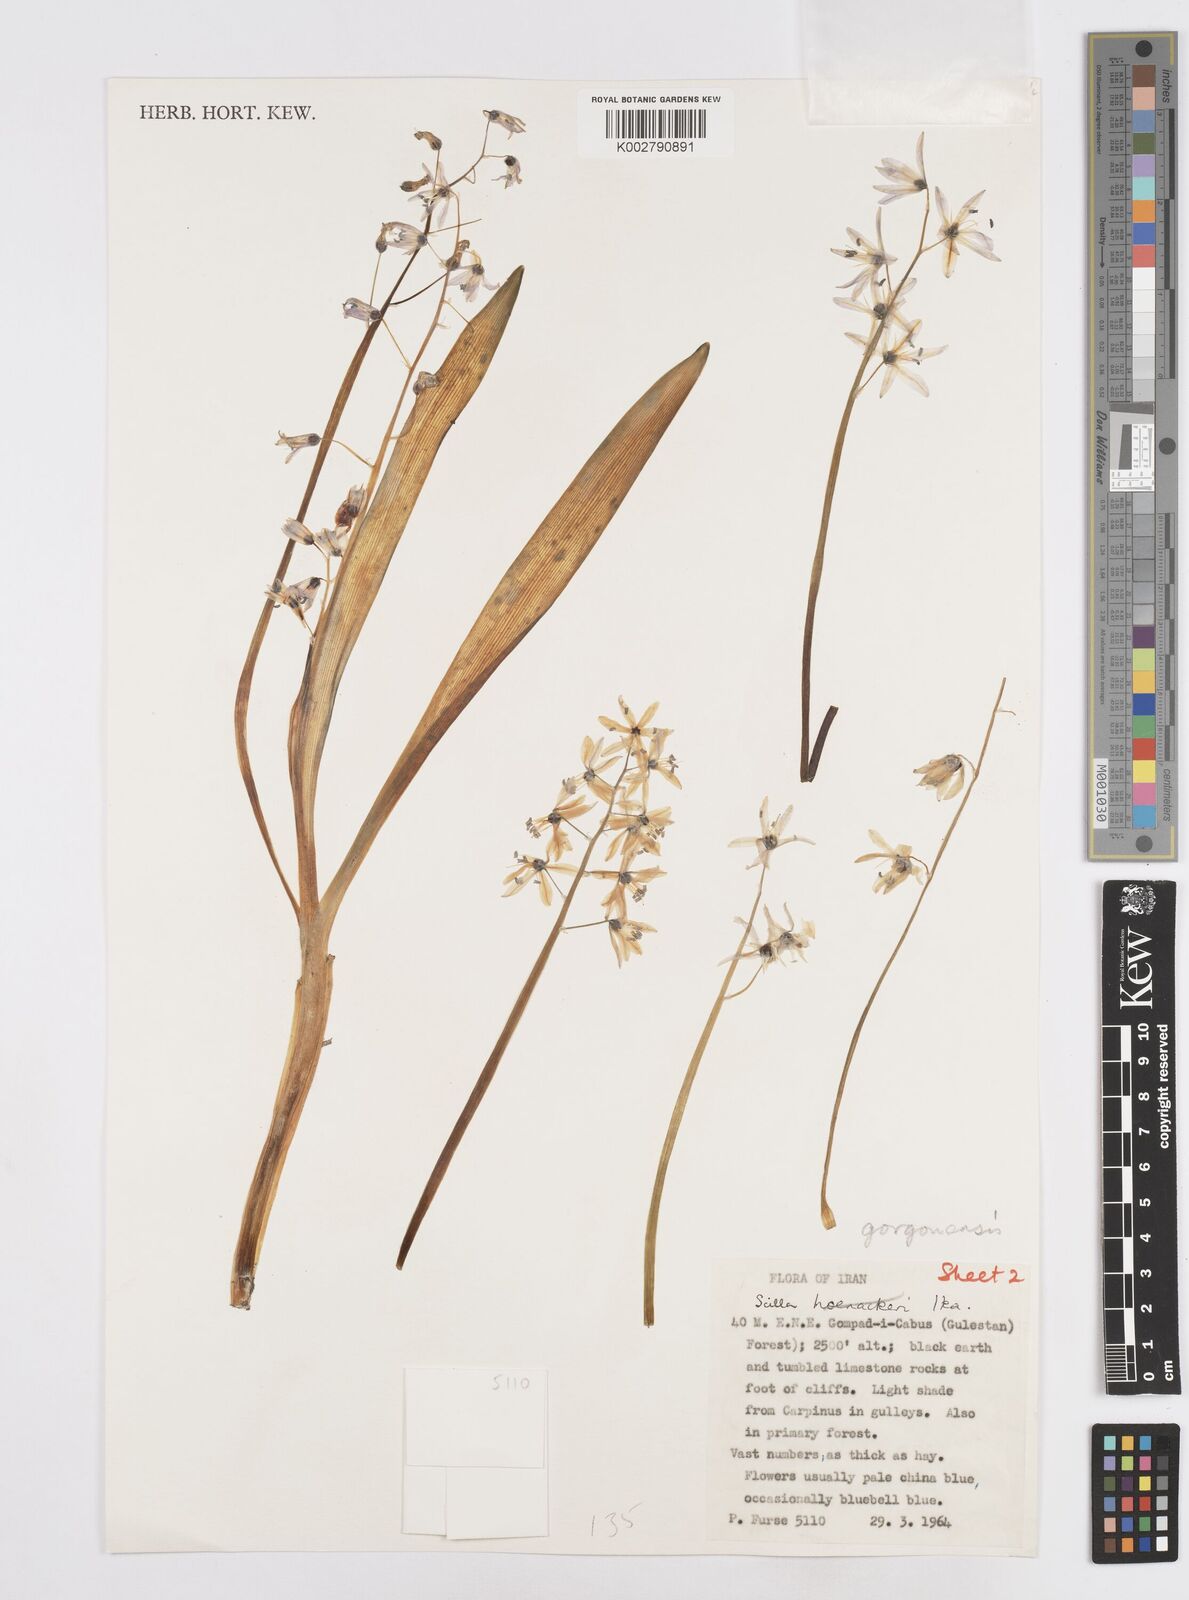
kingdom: Plantae
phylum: Tracheophyta
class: Liliopsida
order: Asparagales
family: Asparagaceae
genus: Fessia
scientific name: Fessia gorganica
